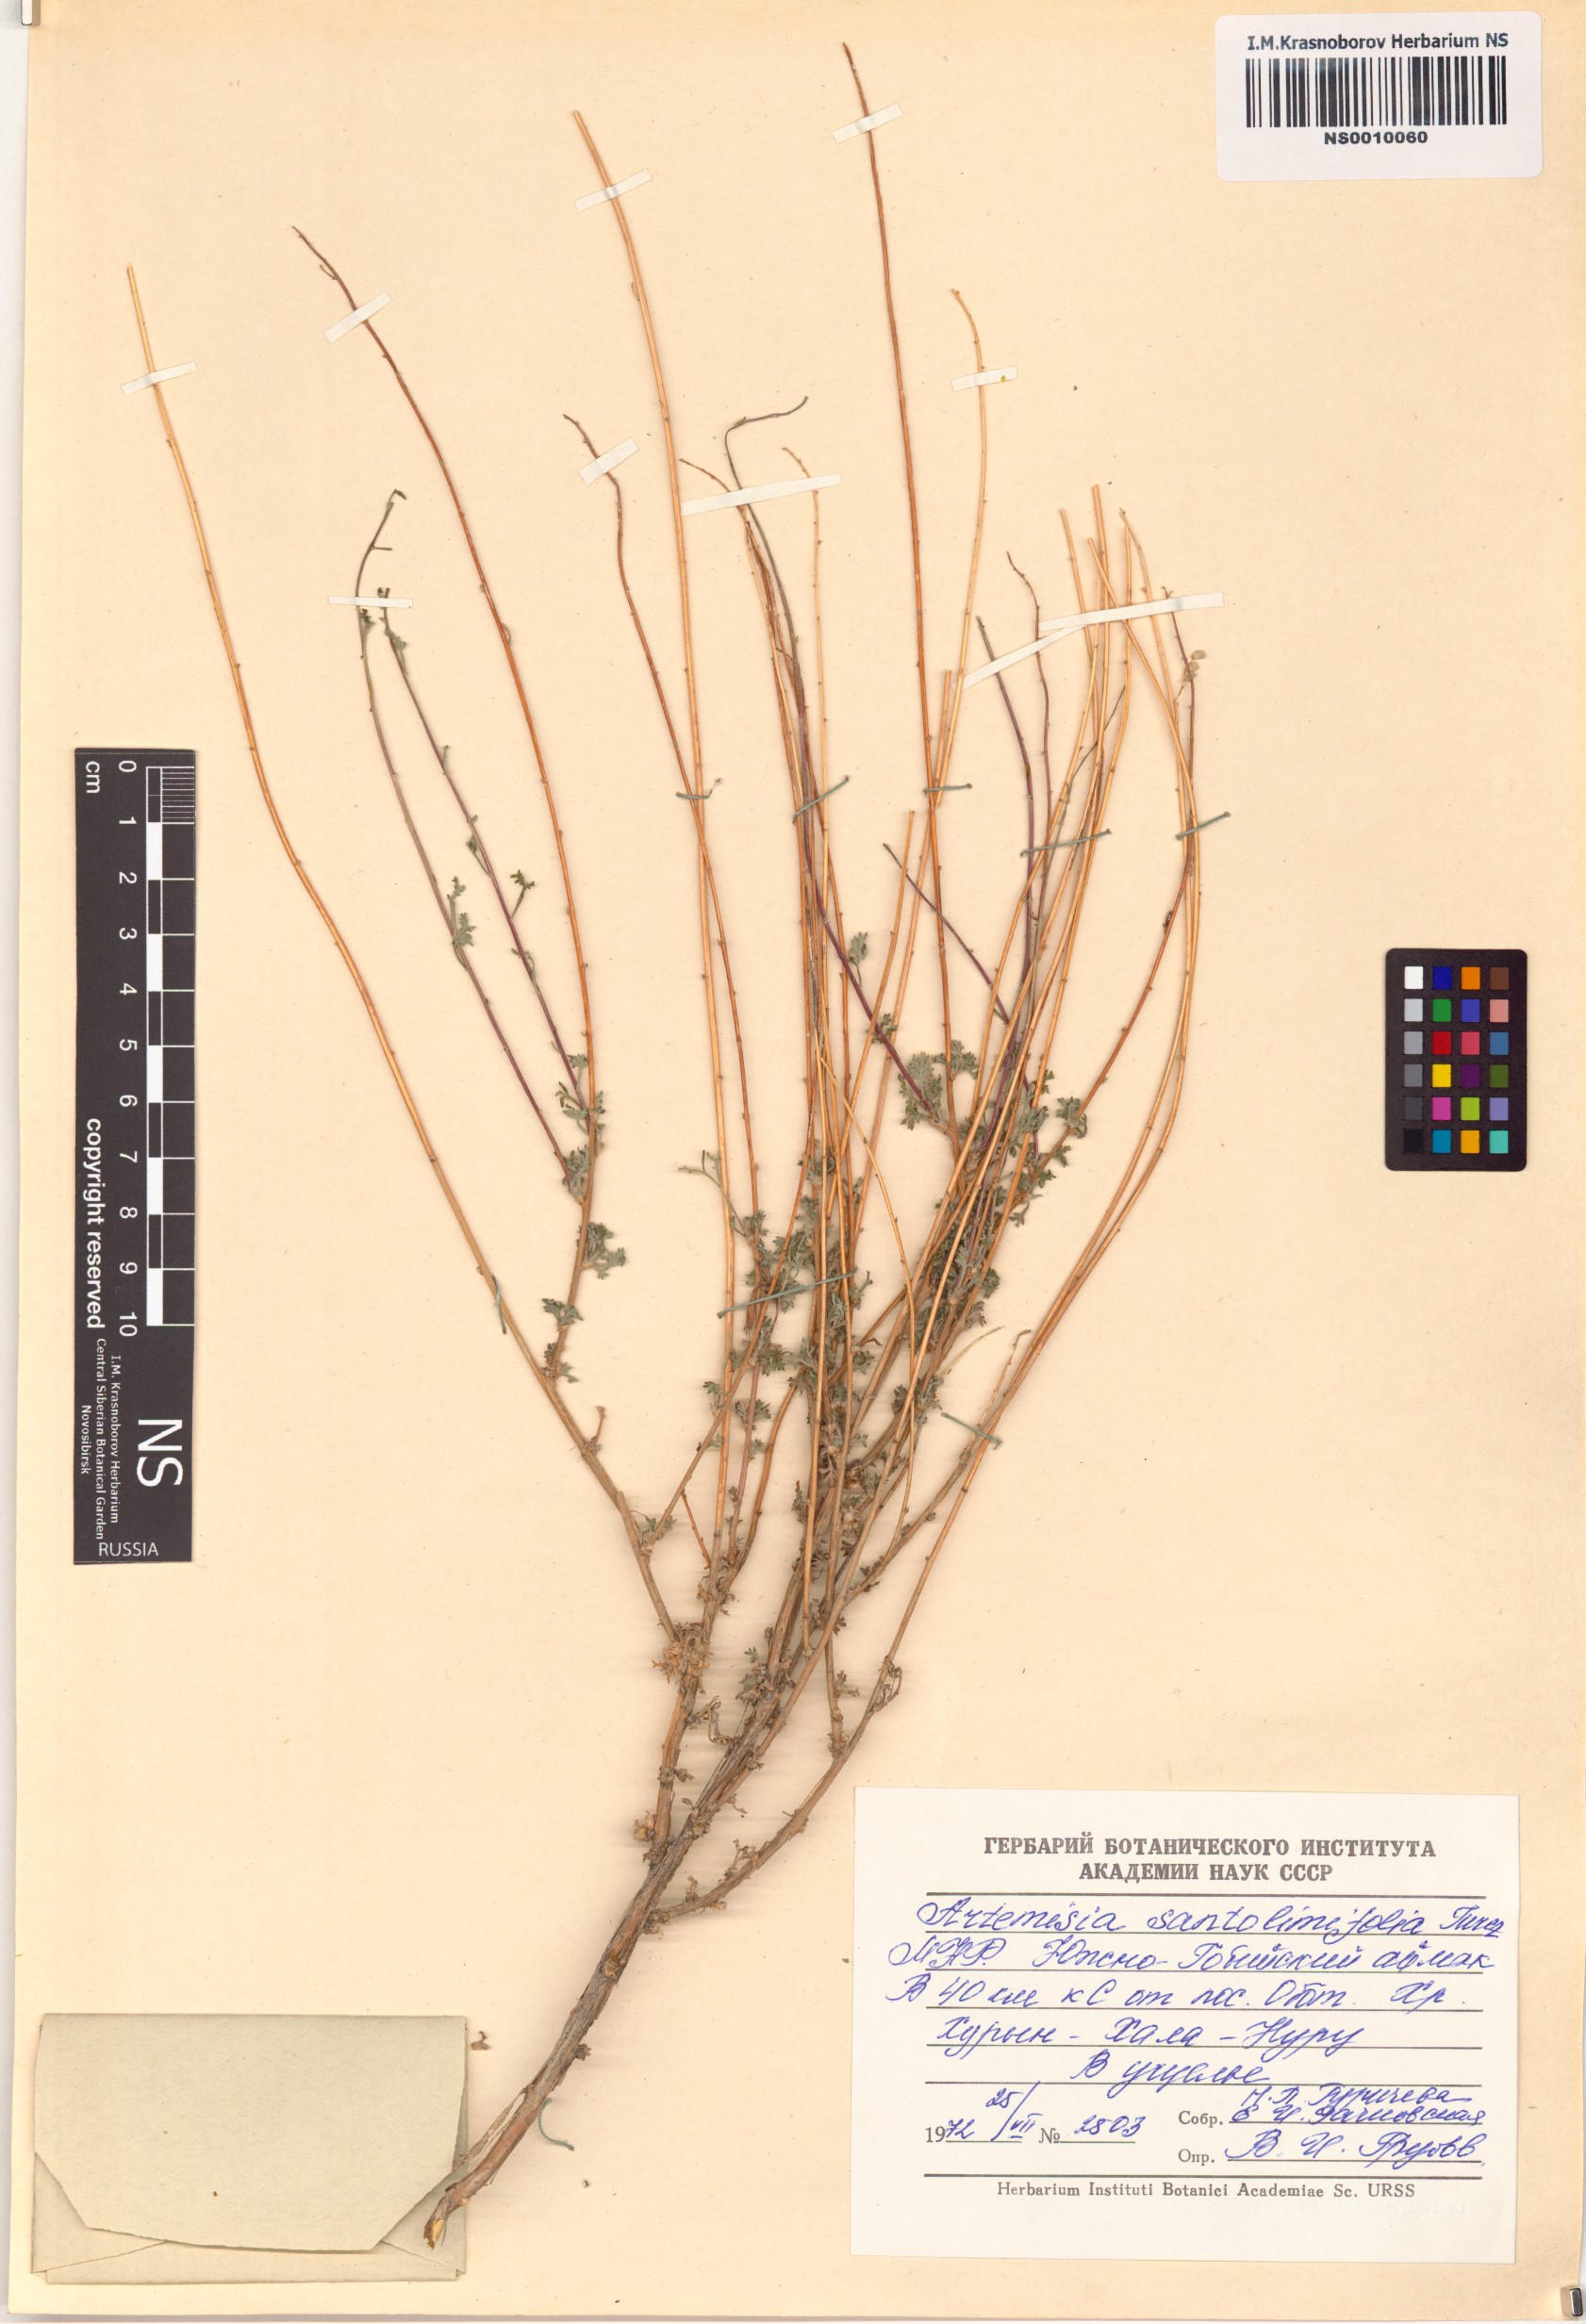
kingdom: Plantae
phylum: Tracheophyta
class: Magnoliopsida
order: Asterales
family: Asteraceae
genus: Artemisia
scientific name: Artemisia stechmanniana
